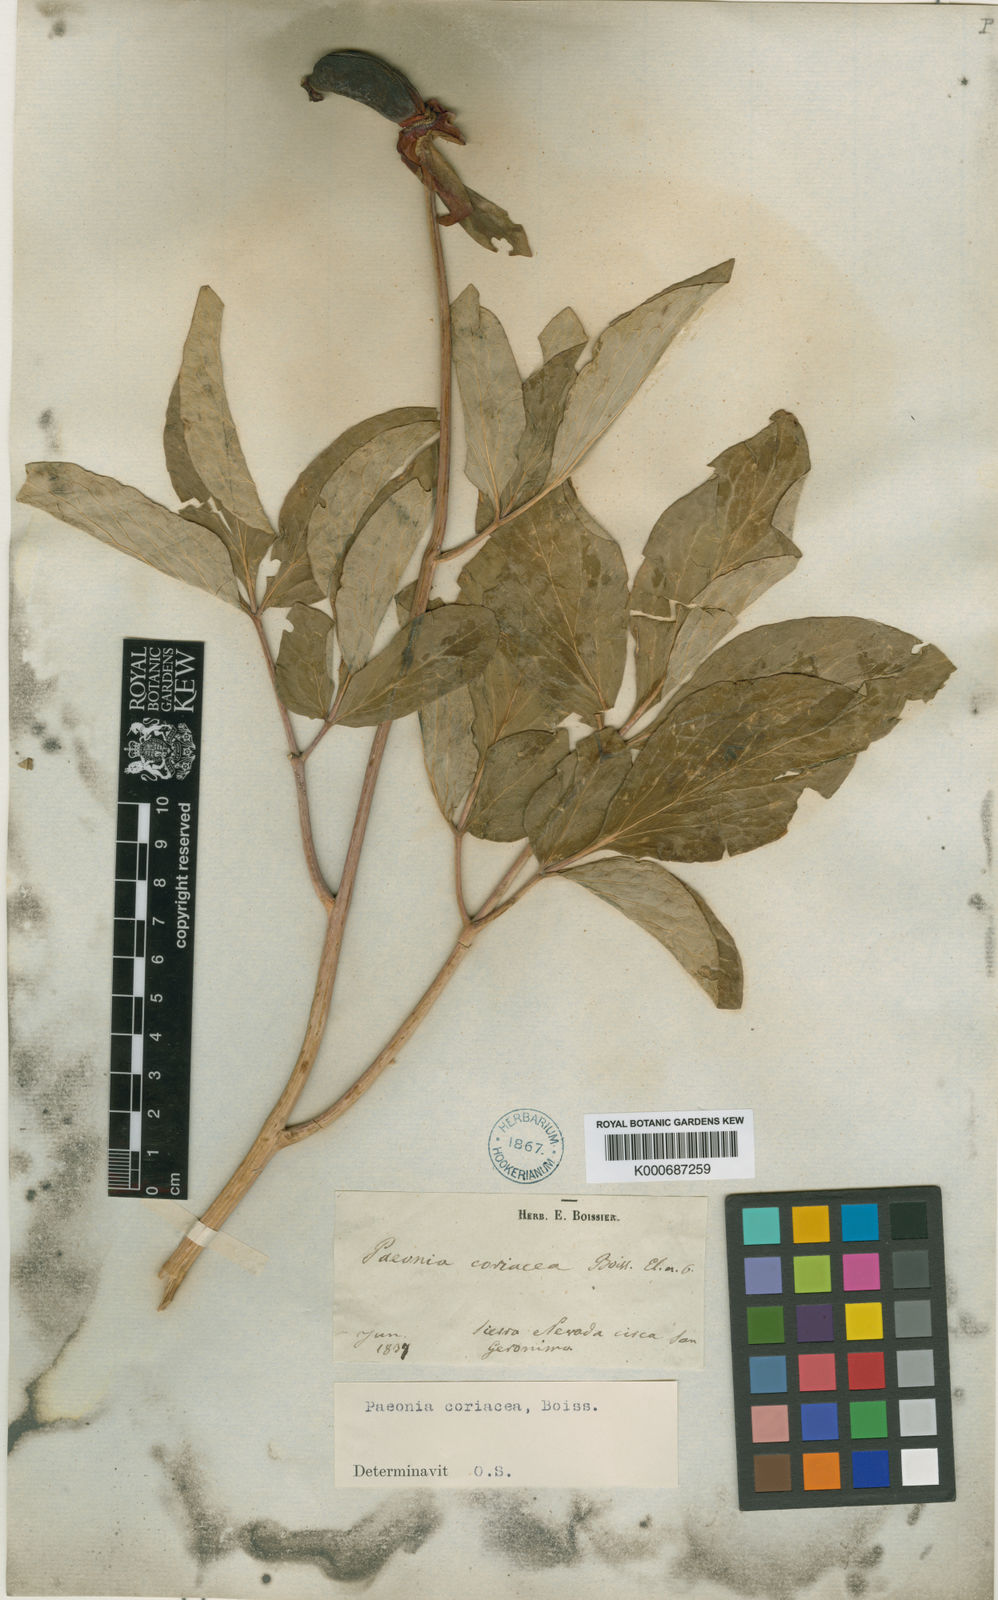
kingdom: Plantae
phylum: Tracheophyta
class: Magnoliopsida
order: Saxifragales
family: Paeoniaceae
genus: Paeonia
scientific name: Paeonia
